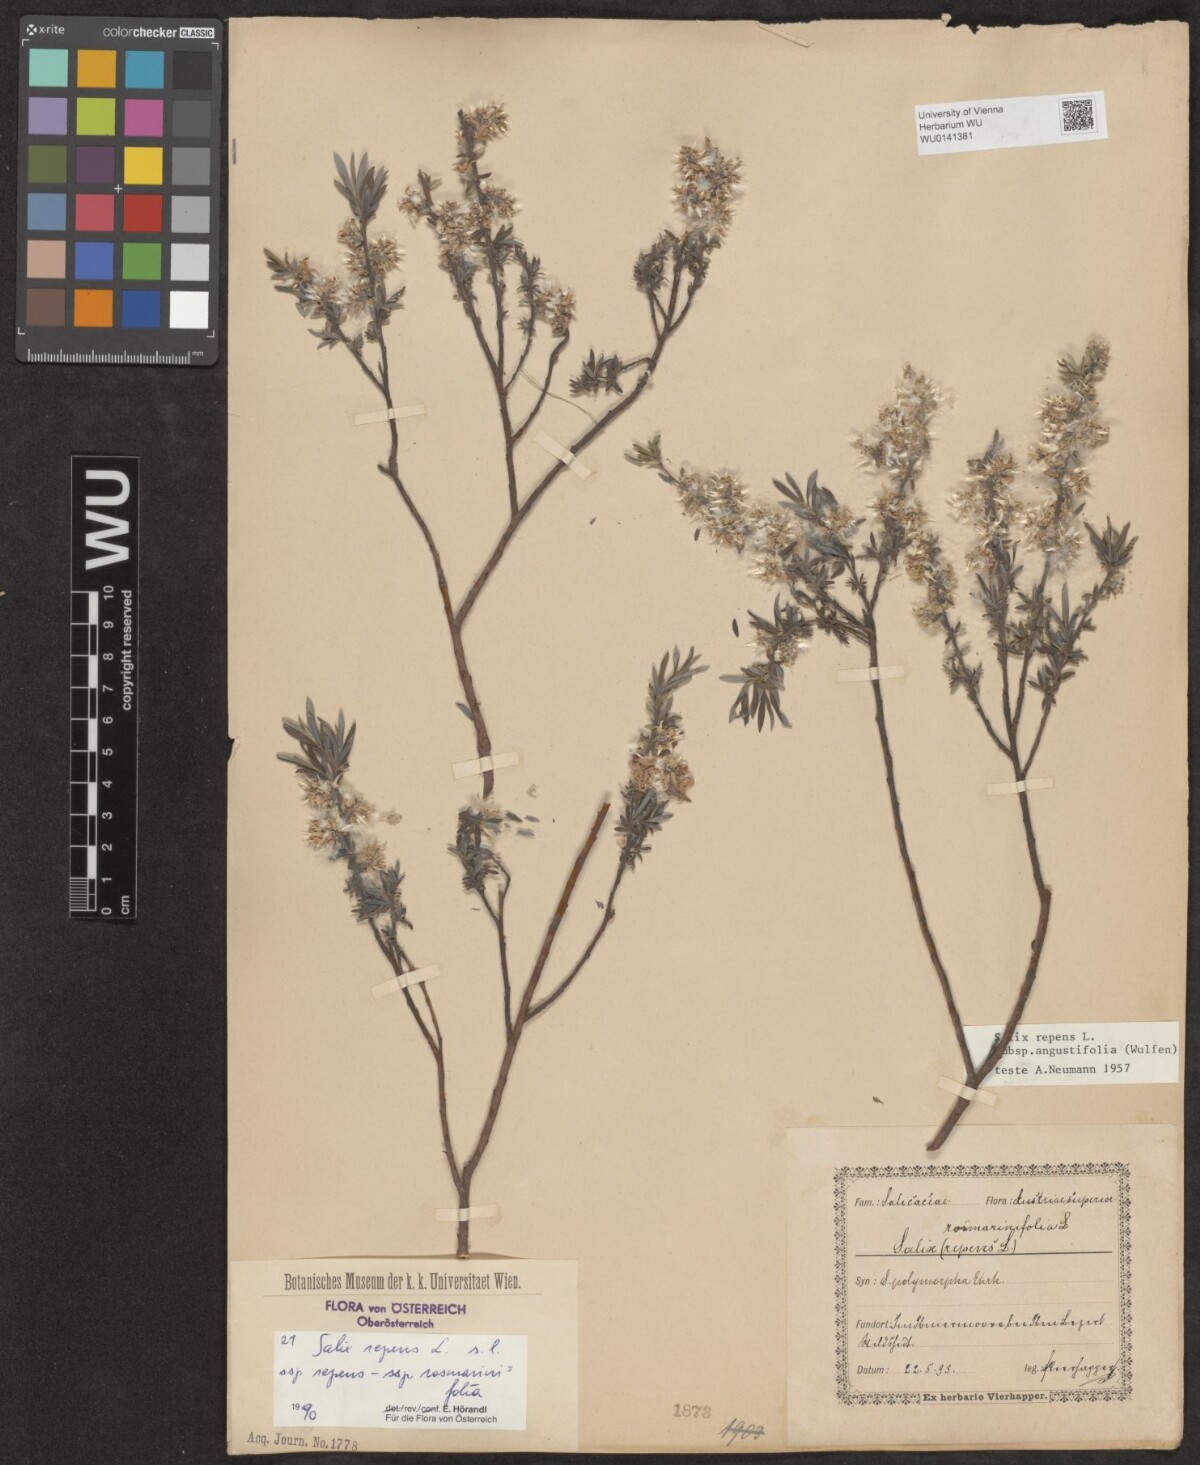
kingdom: Plantae
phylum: Tracheophyta
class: Magnoliopsida
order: Malpighiales
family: Salicaceae
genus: Salix
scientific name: Salix repens
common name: Creeping willow
